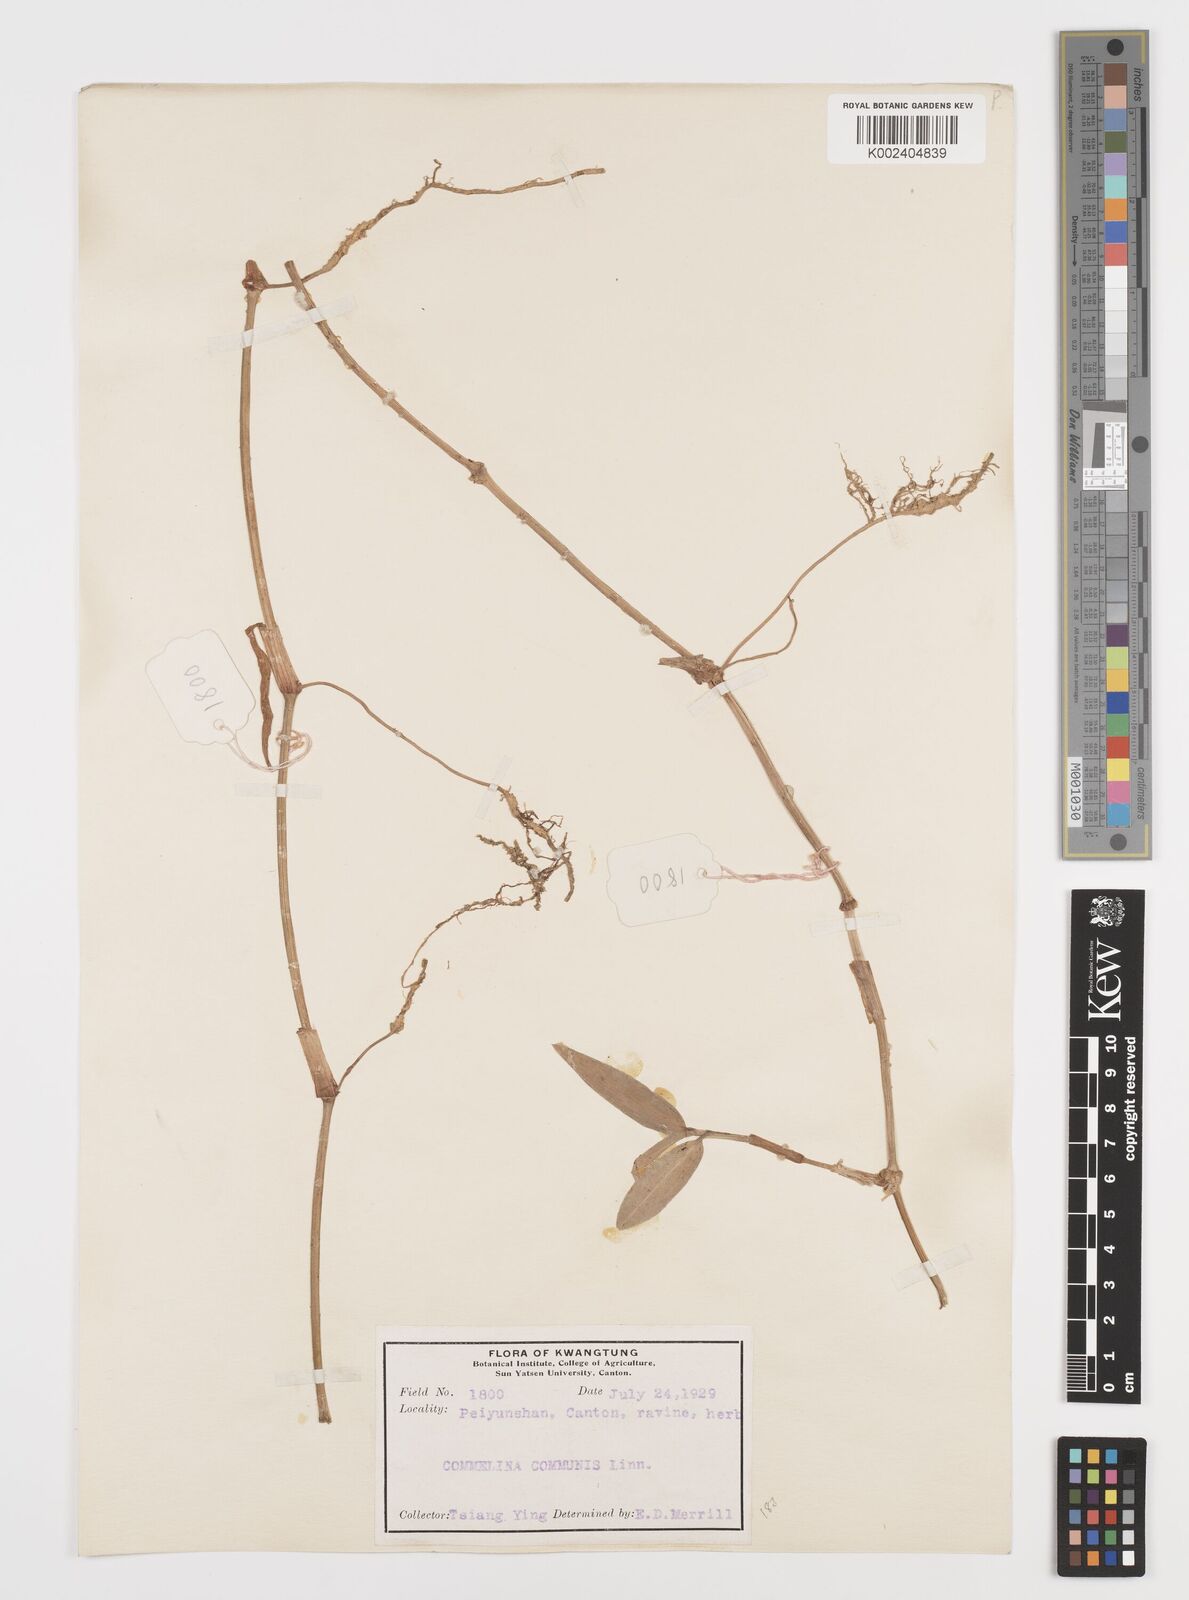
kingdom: Plantae
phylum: Tracheophyta
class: Liliopsida
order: Commelinales
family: Commelinaceae
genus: Commelina
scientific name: Commelina
